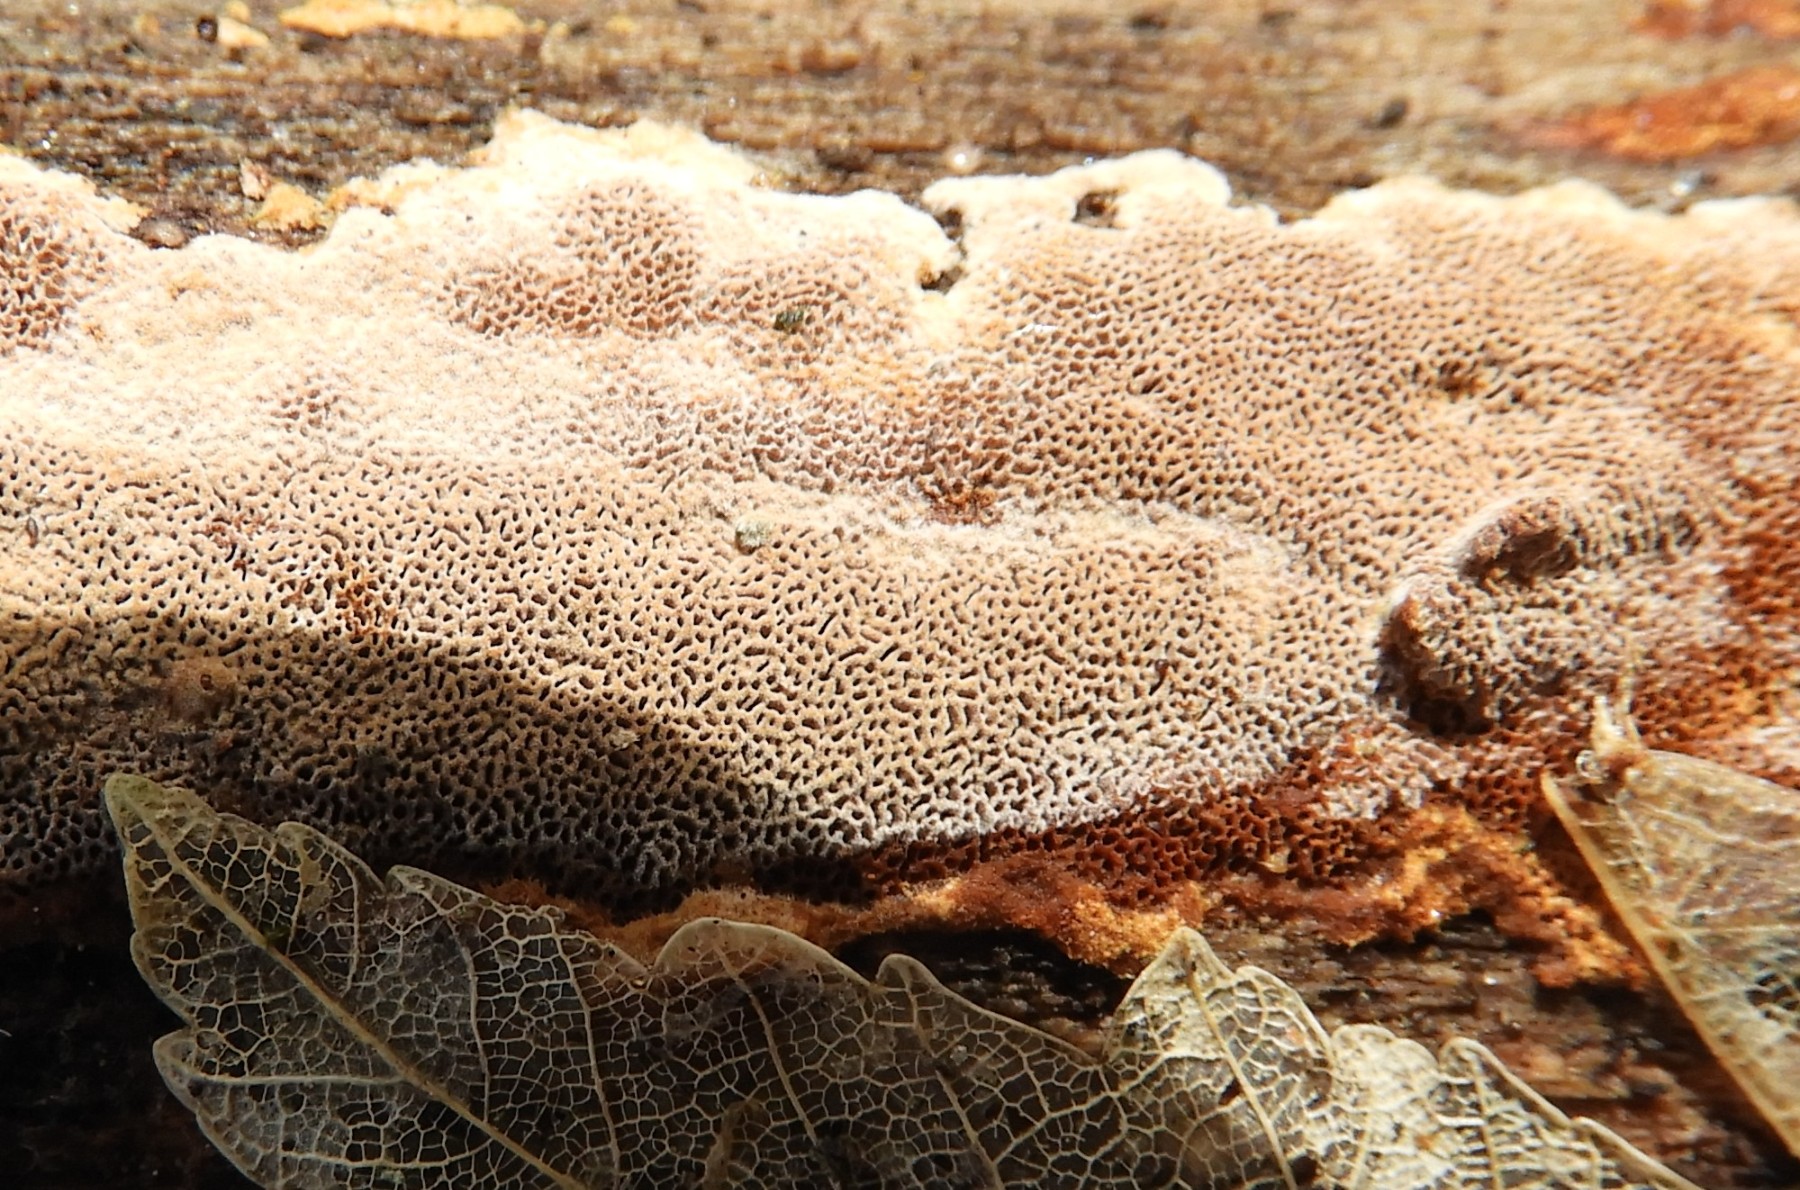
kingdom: Fungi
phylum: Basidiomycota
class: Agaricomycetes
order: Hymenochaetales
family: Hymenochaetaceae
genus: Fuscoporia
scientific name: Fuscoporia
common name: Ildporesvamp
